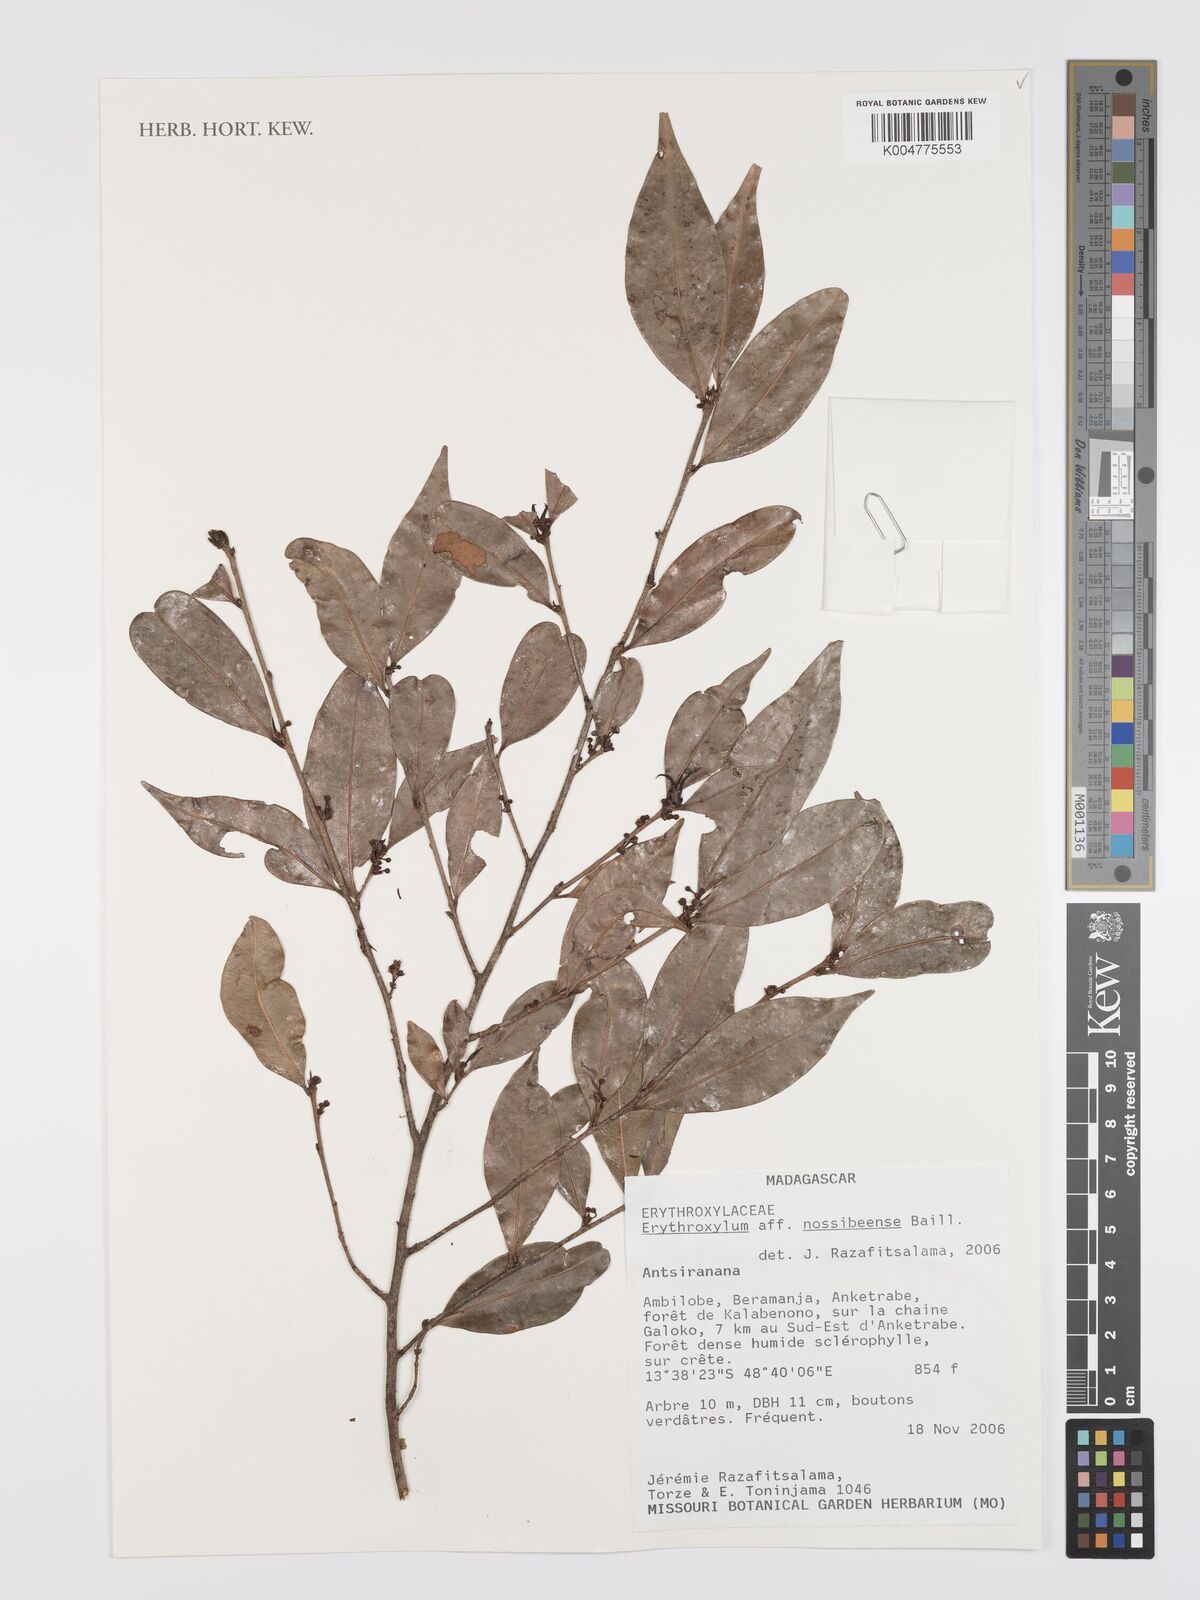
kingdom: Plantae
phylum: Tracheophyta
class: Magnoliopsida
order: Malpighiales
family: Erythroxylaceae
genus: Erythroxylum
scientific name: Erythroxylum nossibeense
